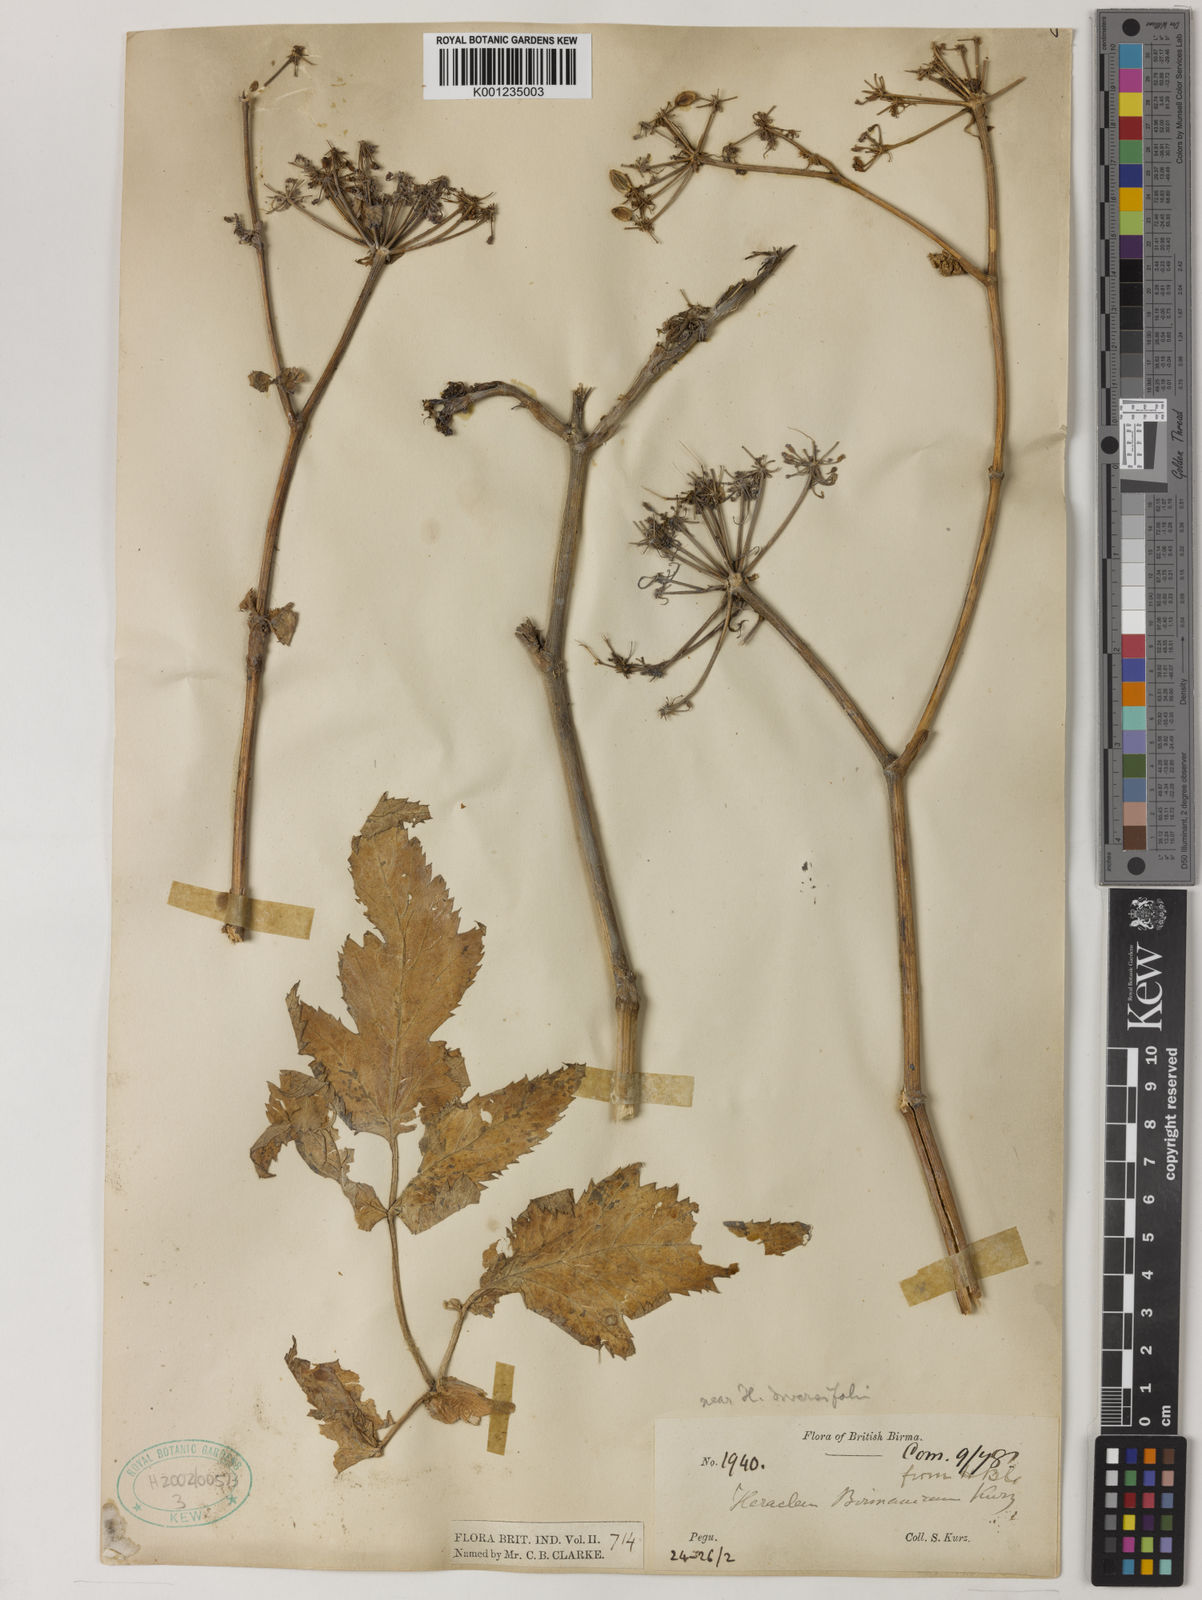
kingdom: Plantae
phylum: Tracheophyta
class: Magnoliopsida
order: Apiales
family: Apiaceae
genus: Tetrataenium
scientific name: Tetrataenium birmanicum
